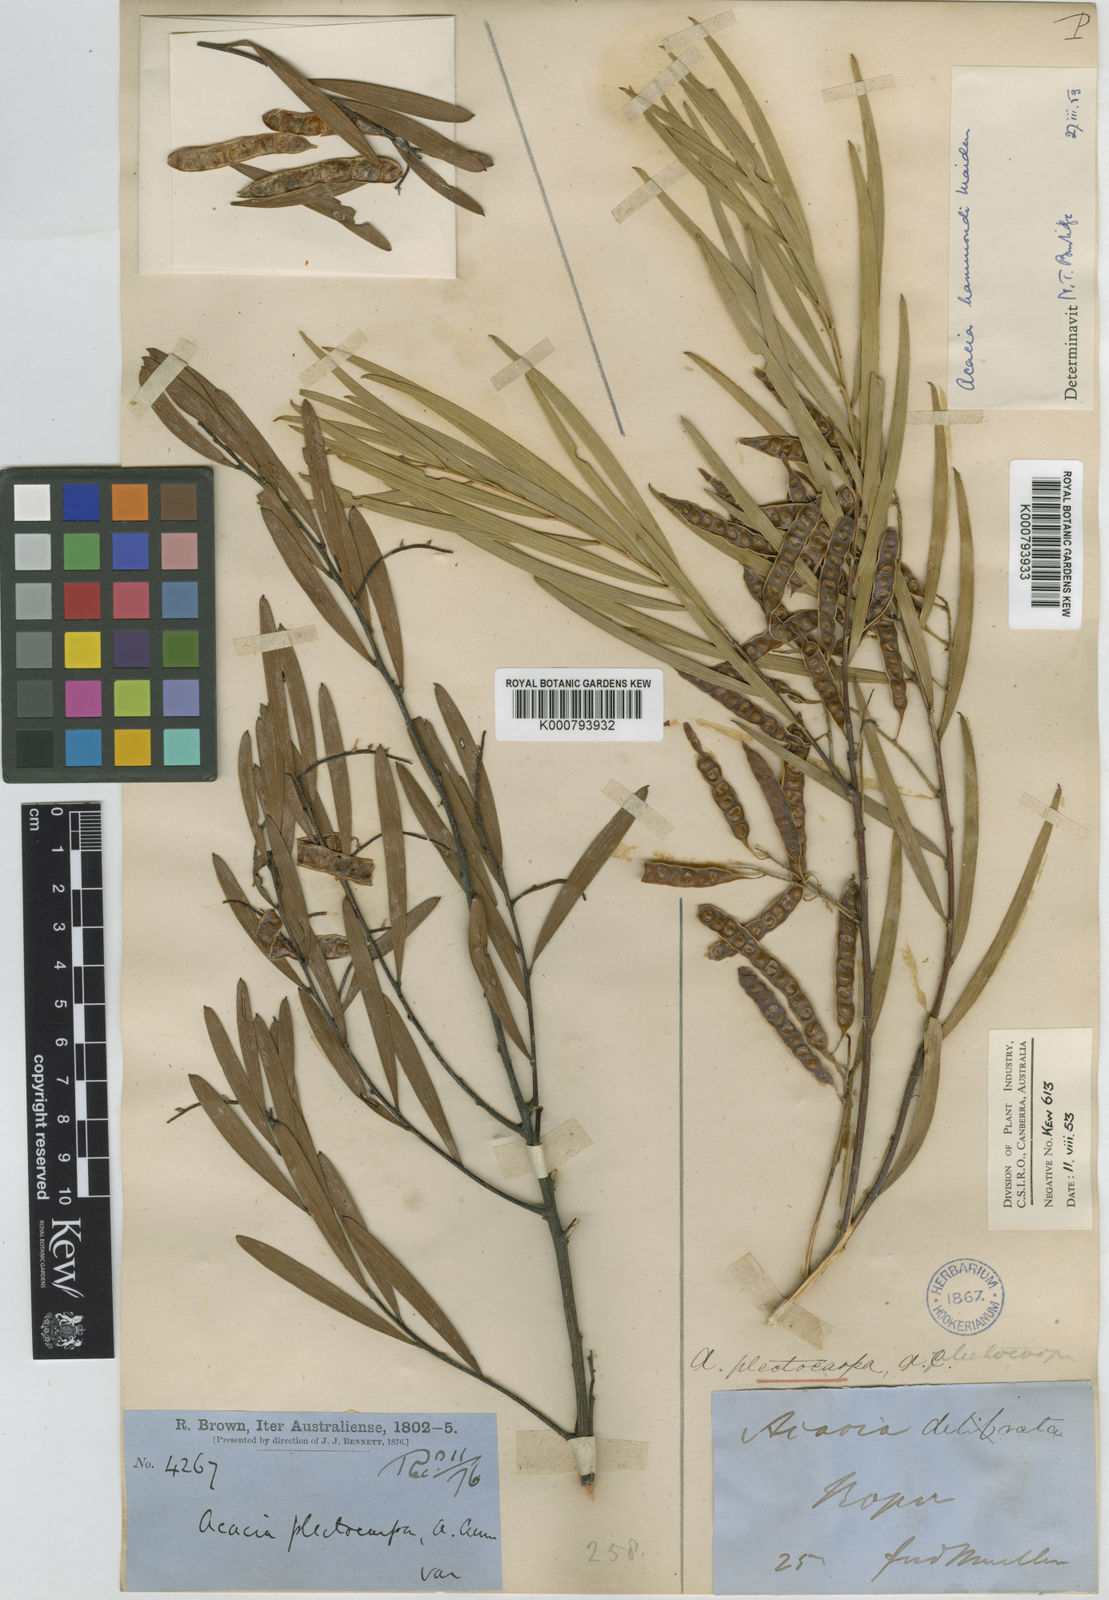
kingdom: Plantae
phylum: Tracheophyta
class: Magnoliopsida
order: Fabales
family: Fabaceae
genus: Acacia
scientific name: Acacia hammondii
